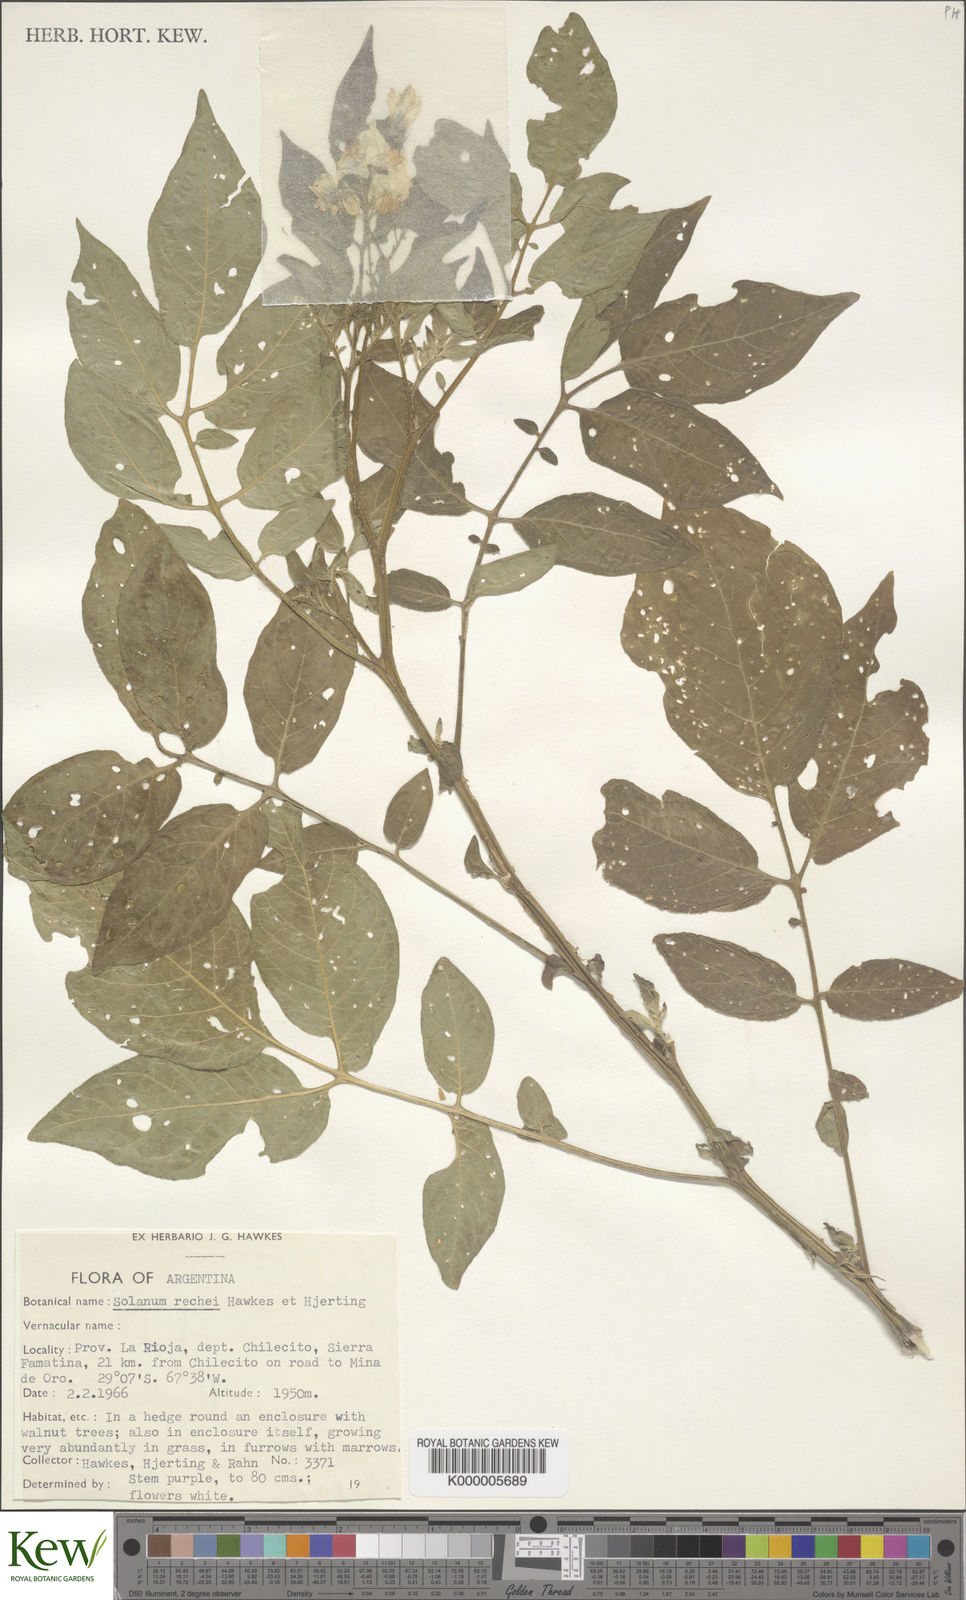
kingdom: Plantae
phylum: Tracheophyta
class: Magnoliopsida
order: Solanales
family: Solanaceae
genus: Solanum
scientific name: Solanum rechei
